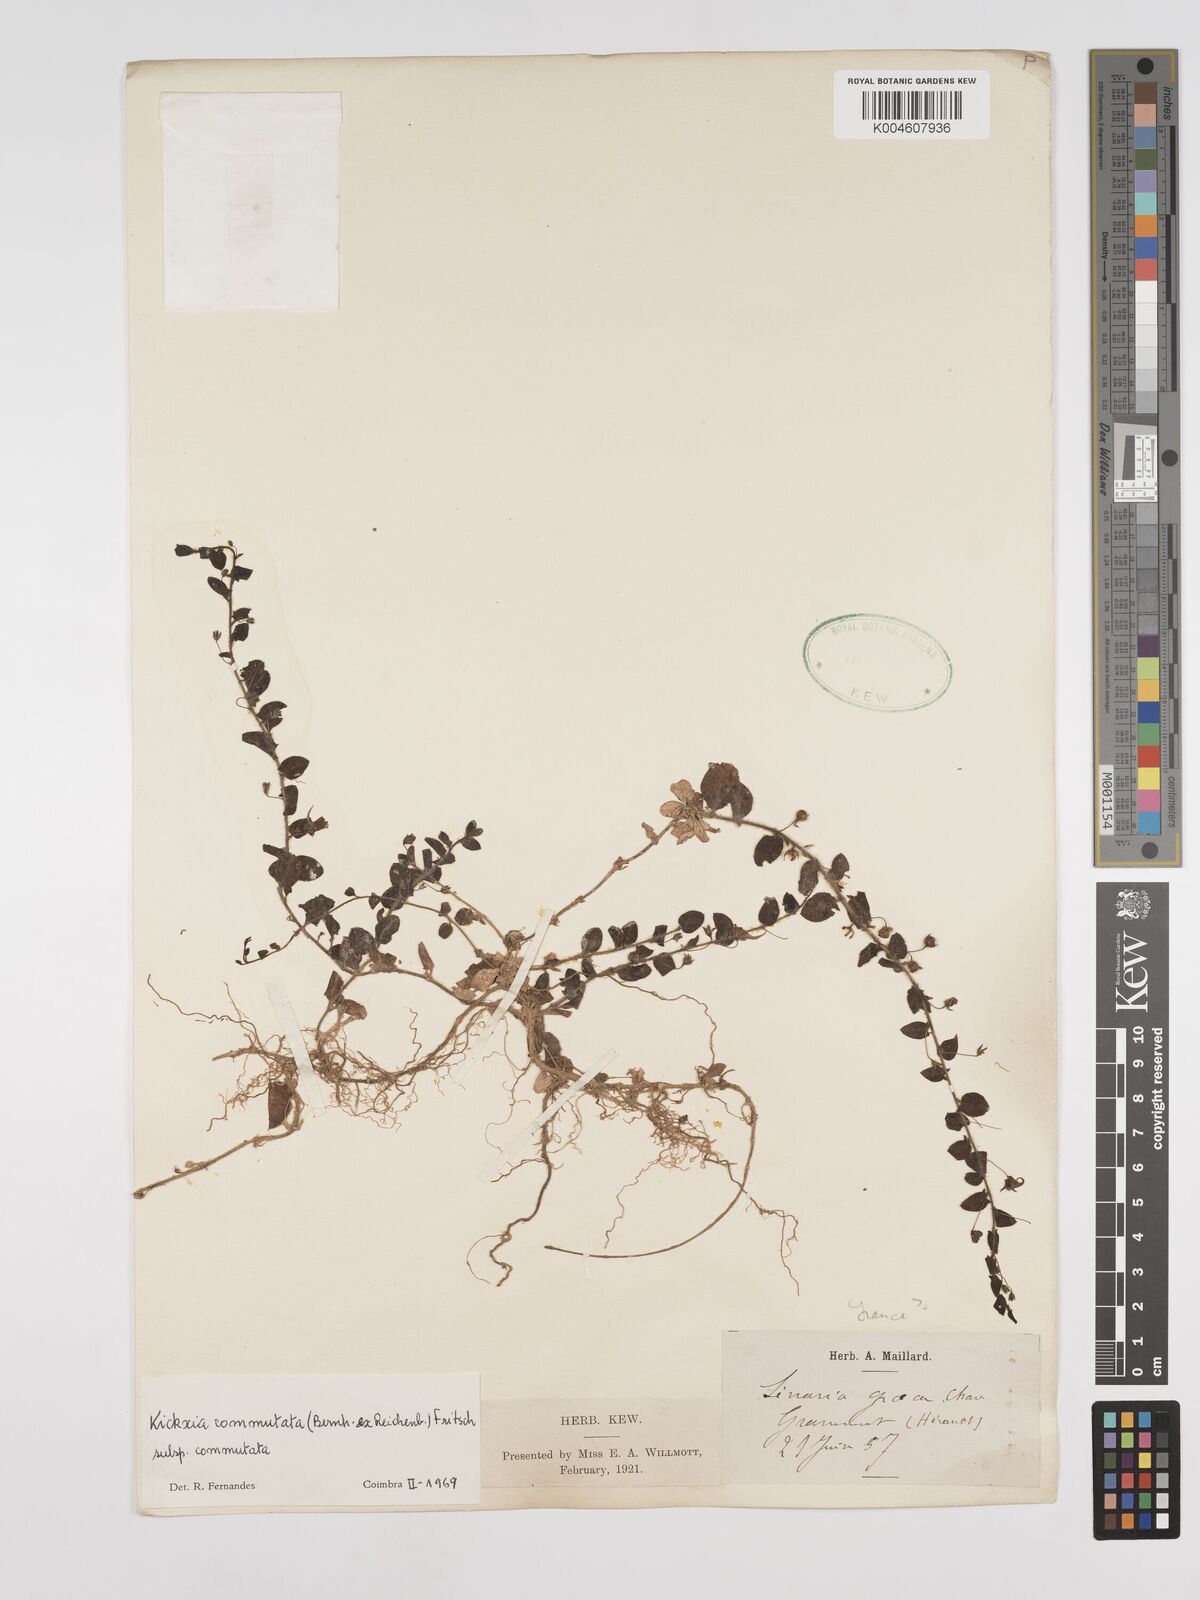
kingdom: Plantae
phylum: Tracheophyta
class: Magnoliopsida
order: Lamiales
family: Plantaginaceae
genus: Kickxia
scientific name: Kickxia commutata
